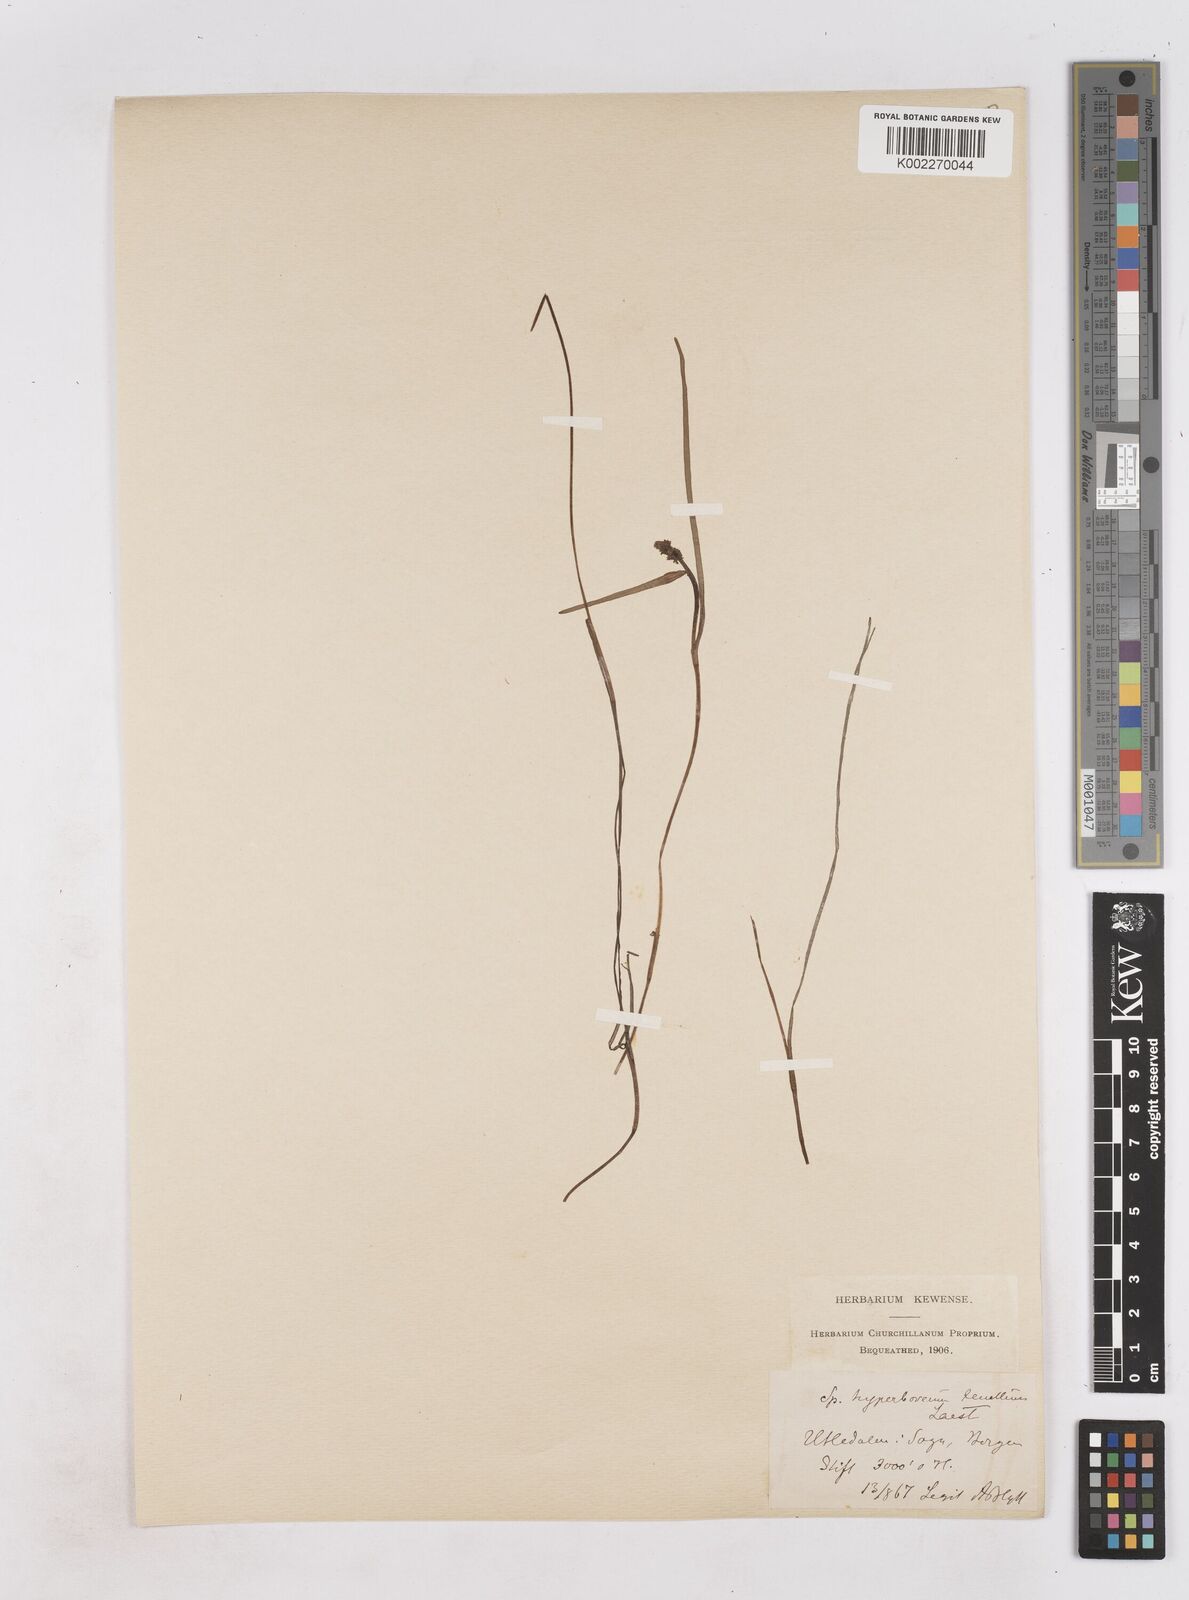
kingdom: Plantae
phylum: Tracheophyta
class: Liliopsida
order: Poales
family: Typhaceae
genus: Sparganium
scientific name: Sparganium hyperboreum
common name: Arctic burreed
